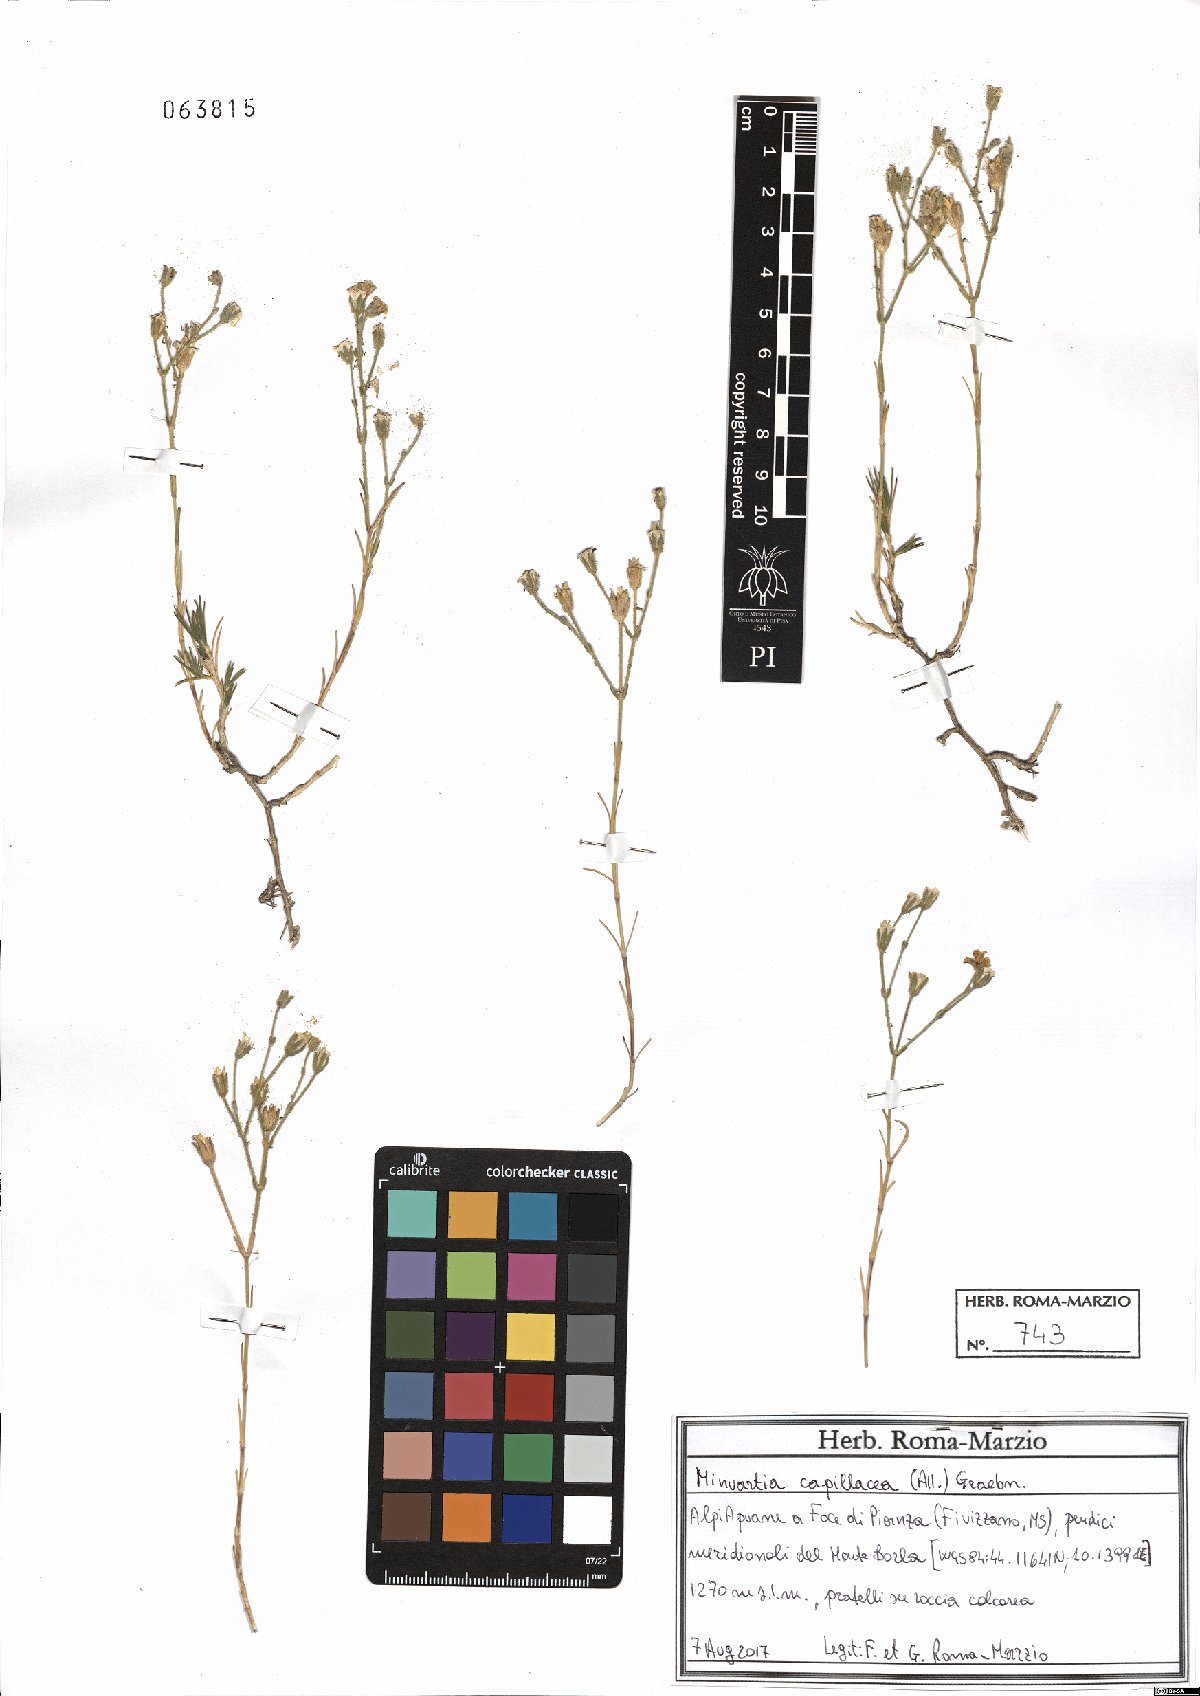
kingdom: Plantae
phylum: Tracheophyta
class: Magnoliopsida
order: Caryophyllales
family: Caryophyllaceae
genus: Cherleria
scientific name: Cherleria capillacea
